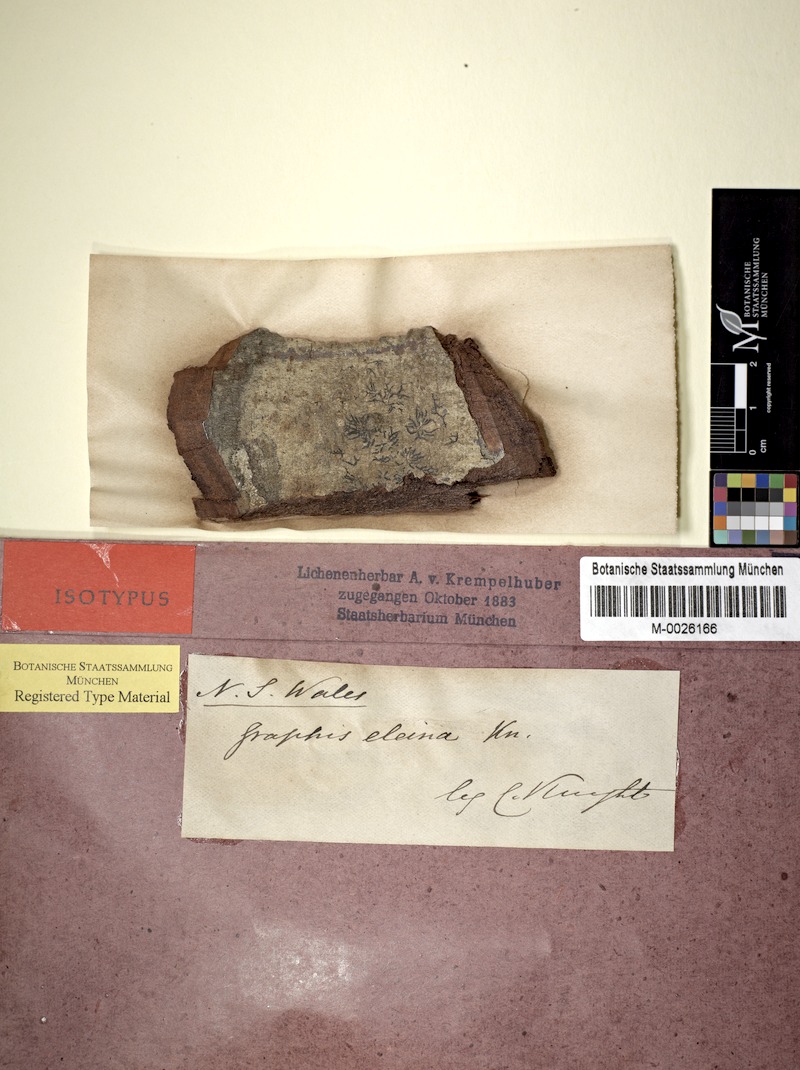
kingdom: Fungi
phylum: Ascomycota
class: Lecanoromycetes
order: Ostropales
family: Graphidaceae
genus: Phaeographis
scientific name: Phaeographis subintricata
